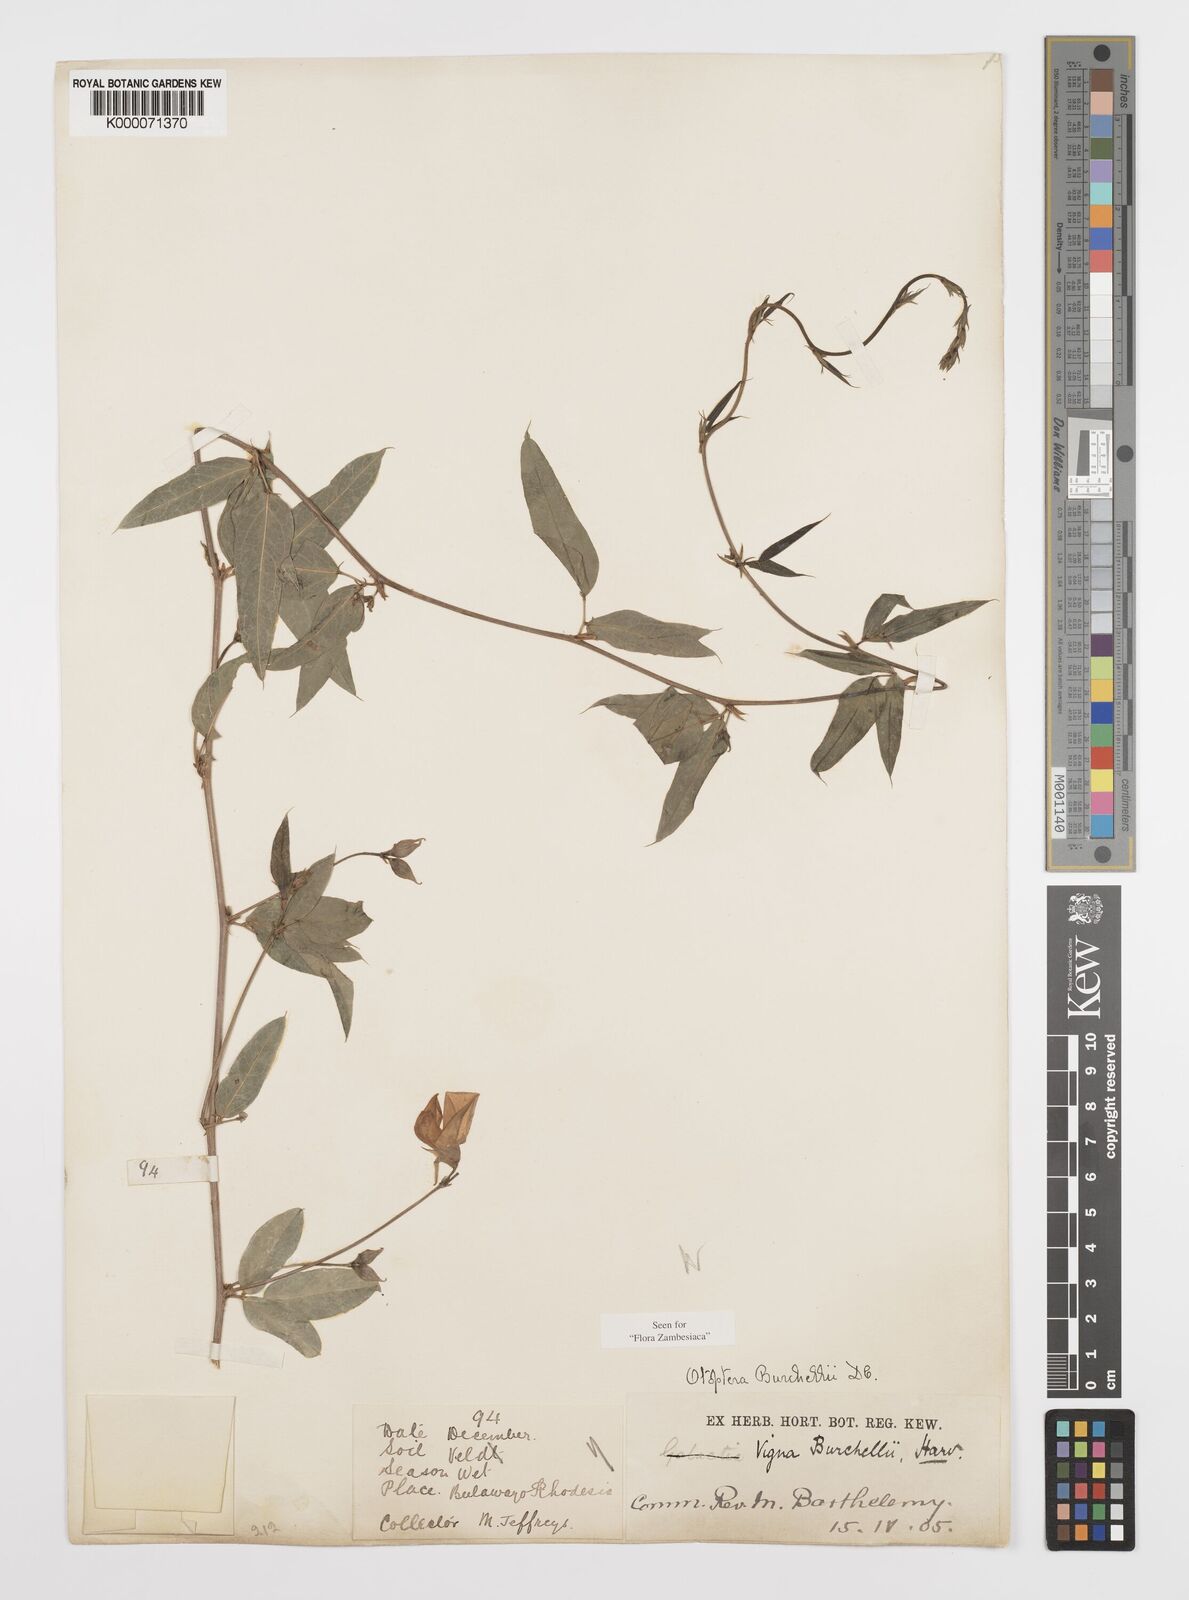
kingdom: Plantae
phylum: Tracheophyta
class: Magnoliopsida
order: Fabales
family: Fabaceae
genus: Otoptera
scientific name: Otoptera burchellii
